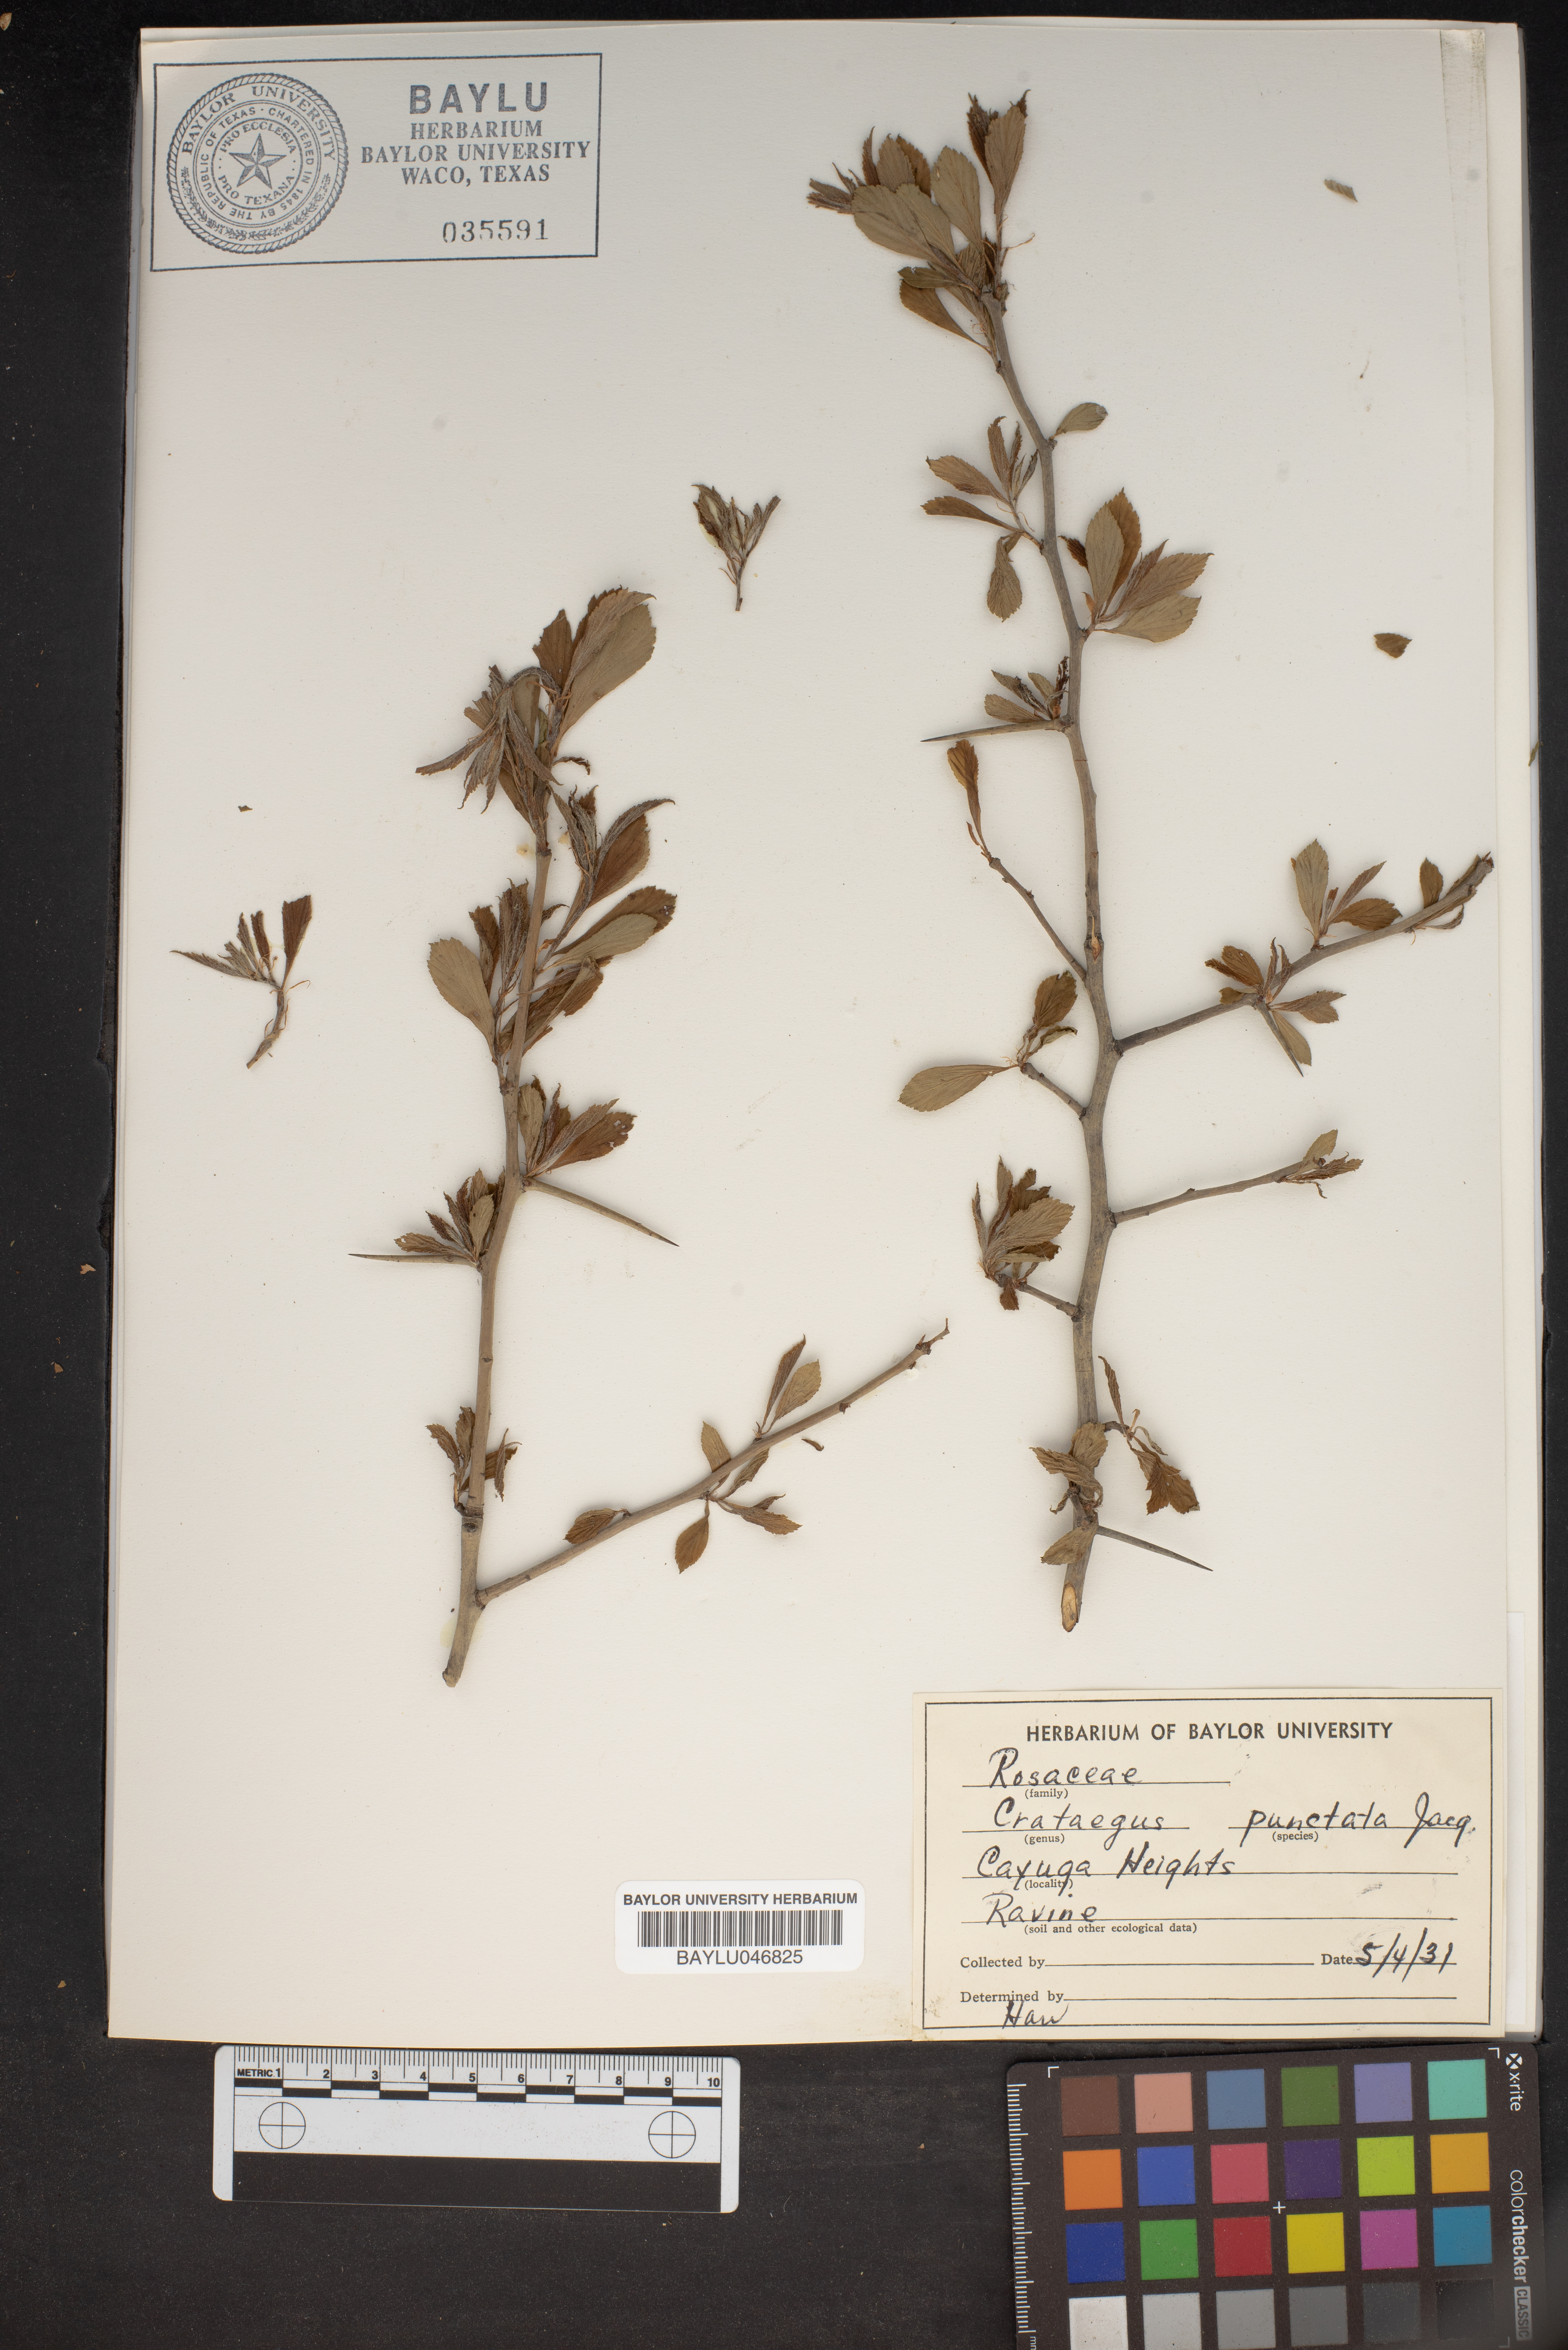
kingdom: Plantae
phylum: Tracheophyta
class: Magnoliopsida
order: Rosales
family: Rosaceae
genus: Crataegus
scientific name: Crataegus punctata
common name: Dotted hawthorn
